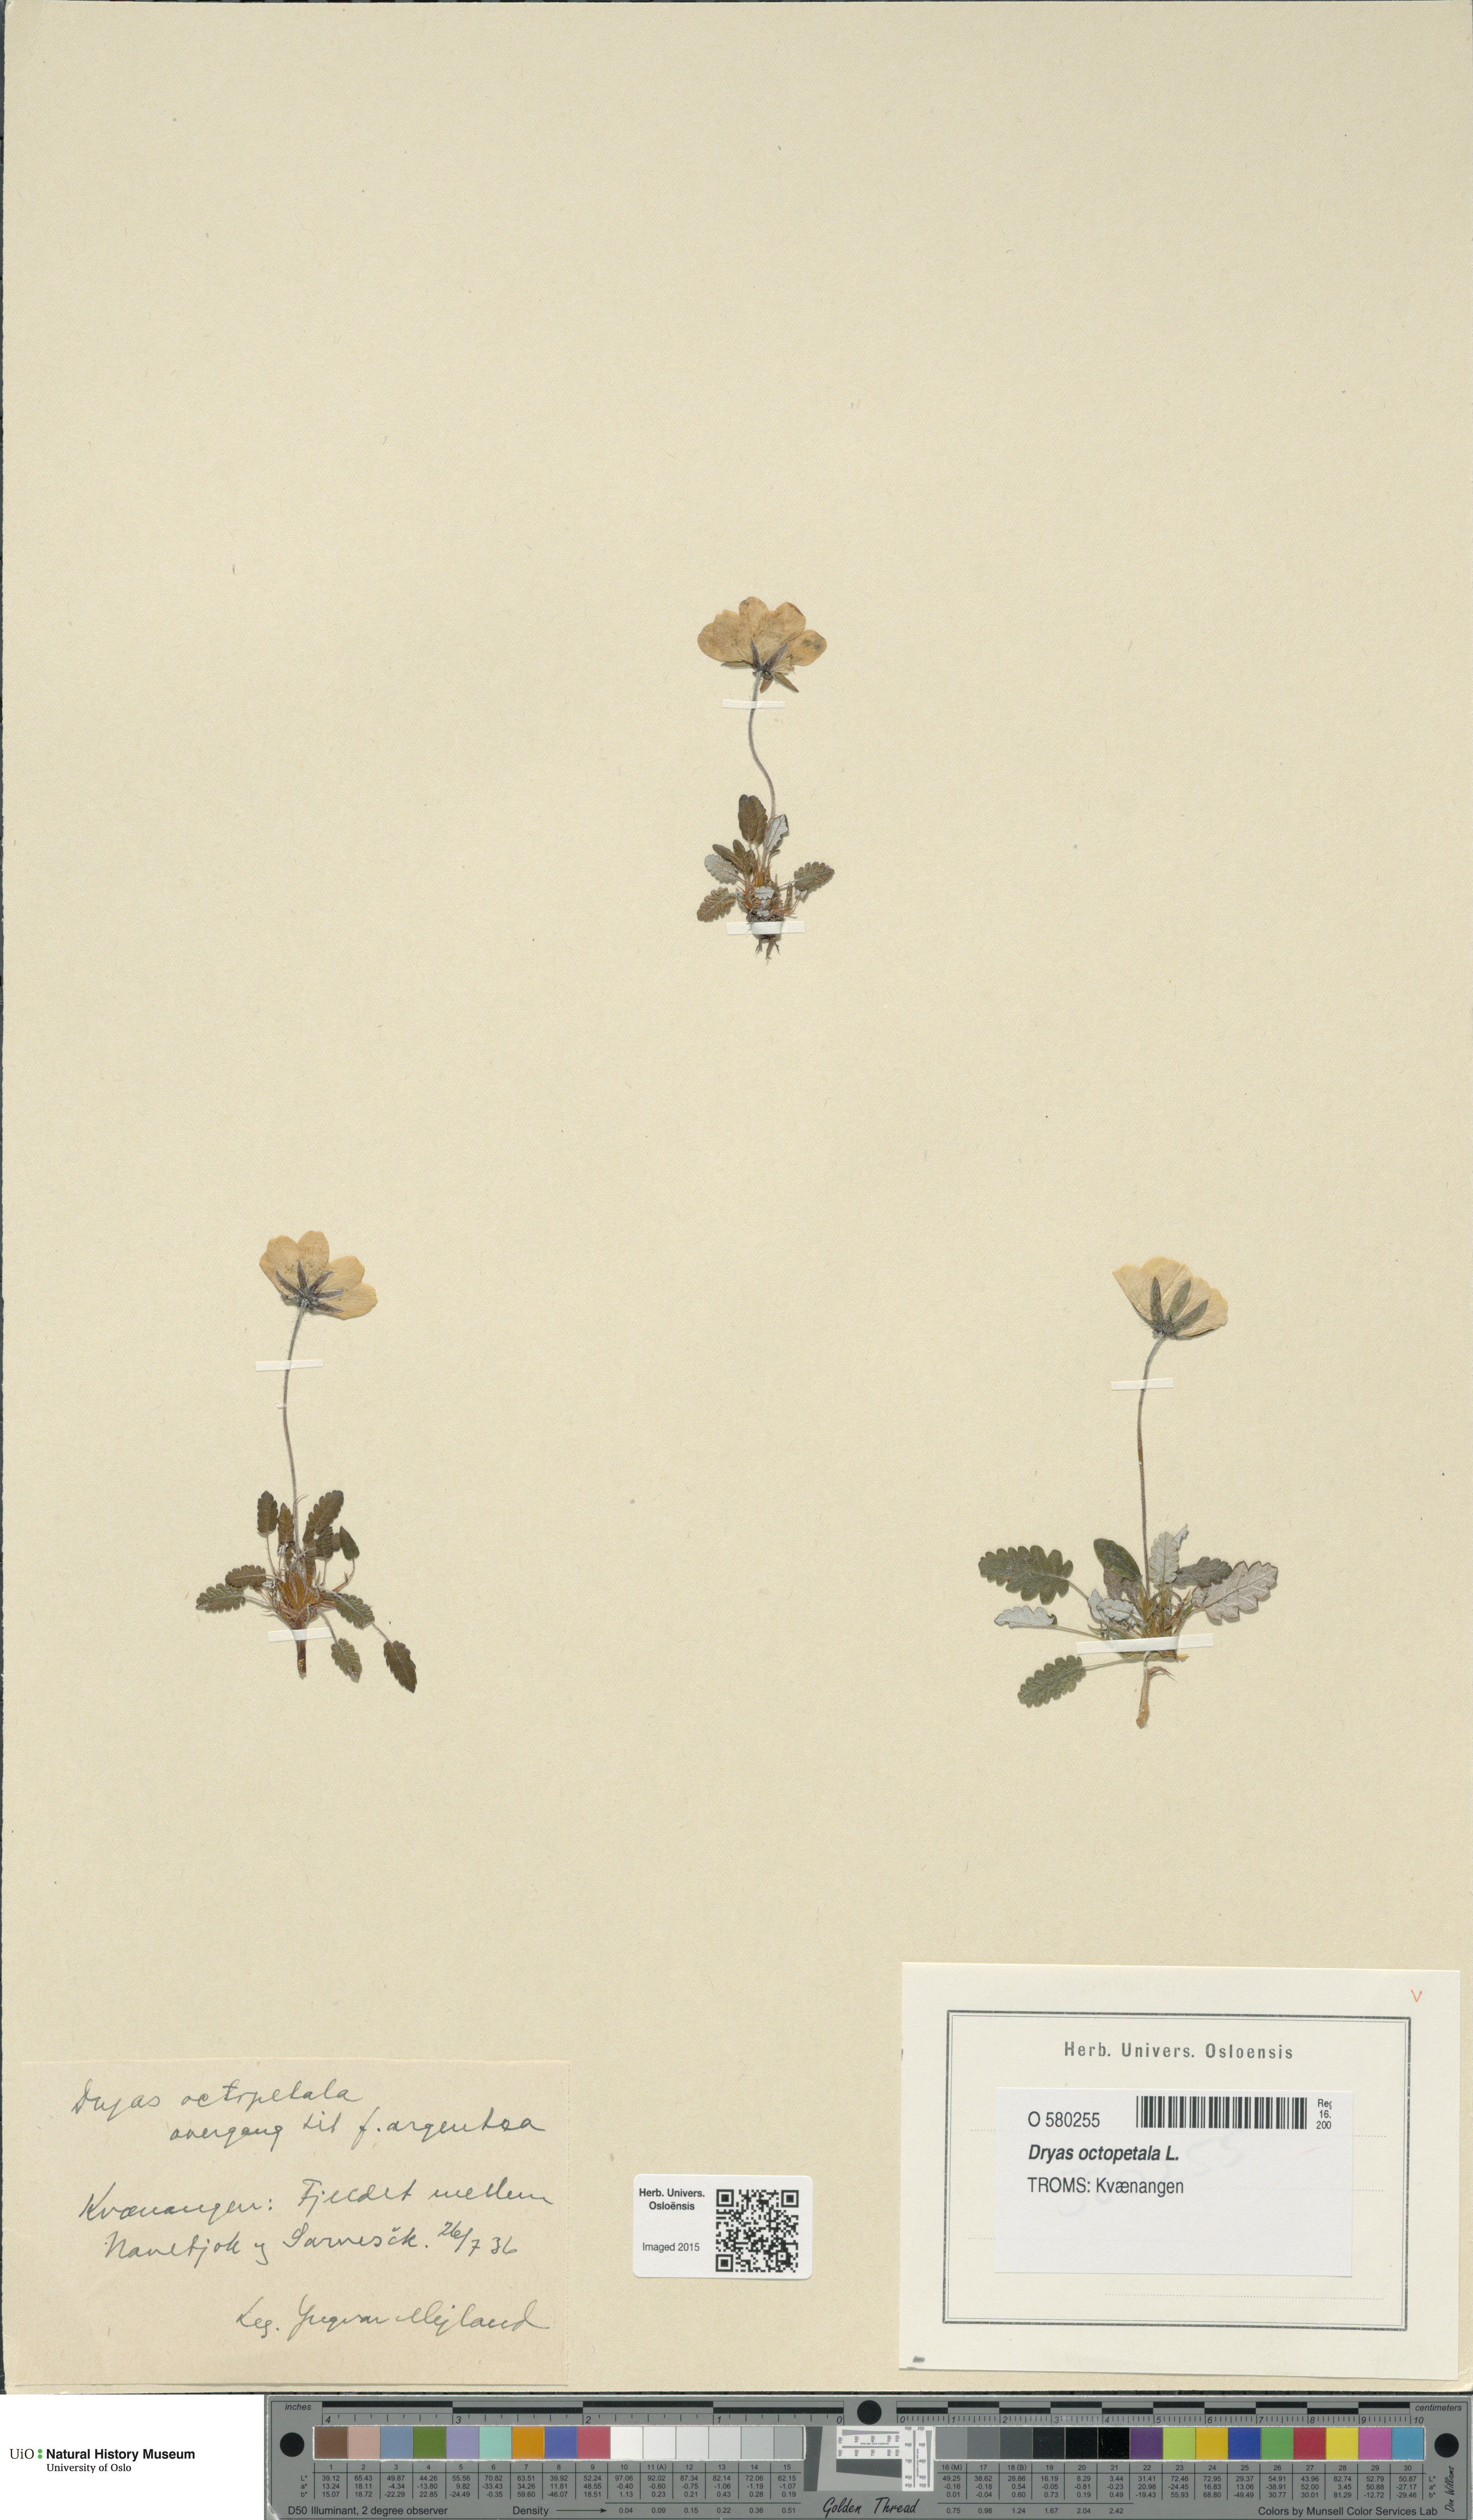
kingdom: Plantae
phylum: Tracheophyta
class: Magnoliopsida
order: Rosales
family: Rosaceae
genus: Dryas
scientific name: Dryas octopetala
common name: Eight-petal mountain-avens
